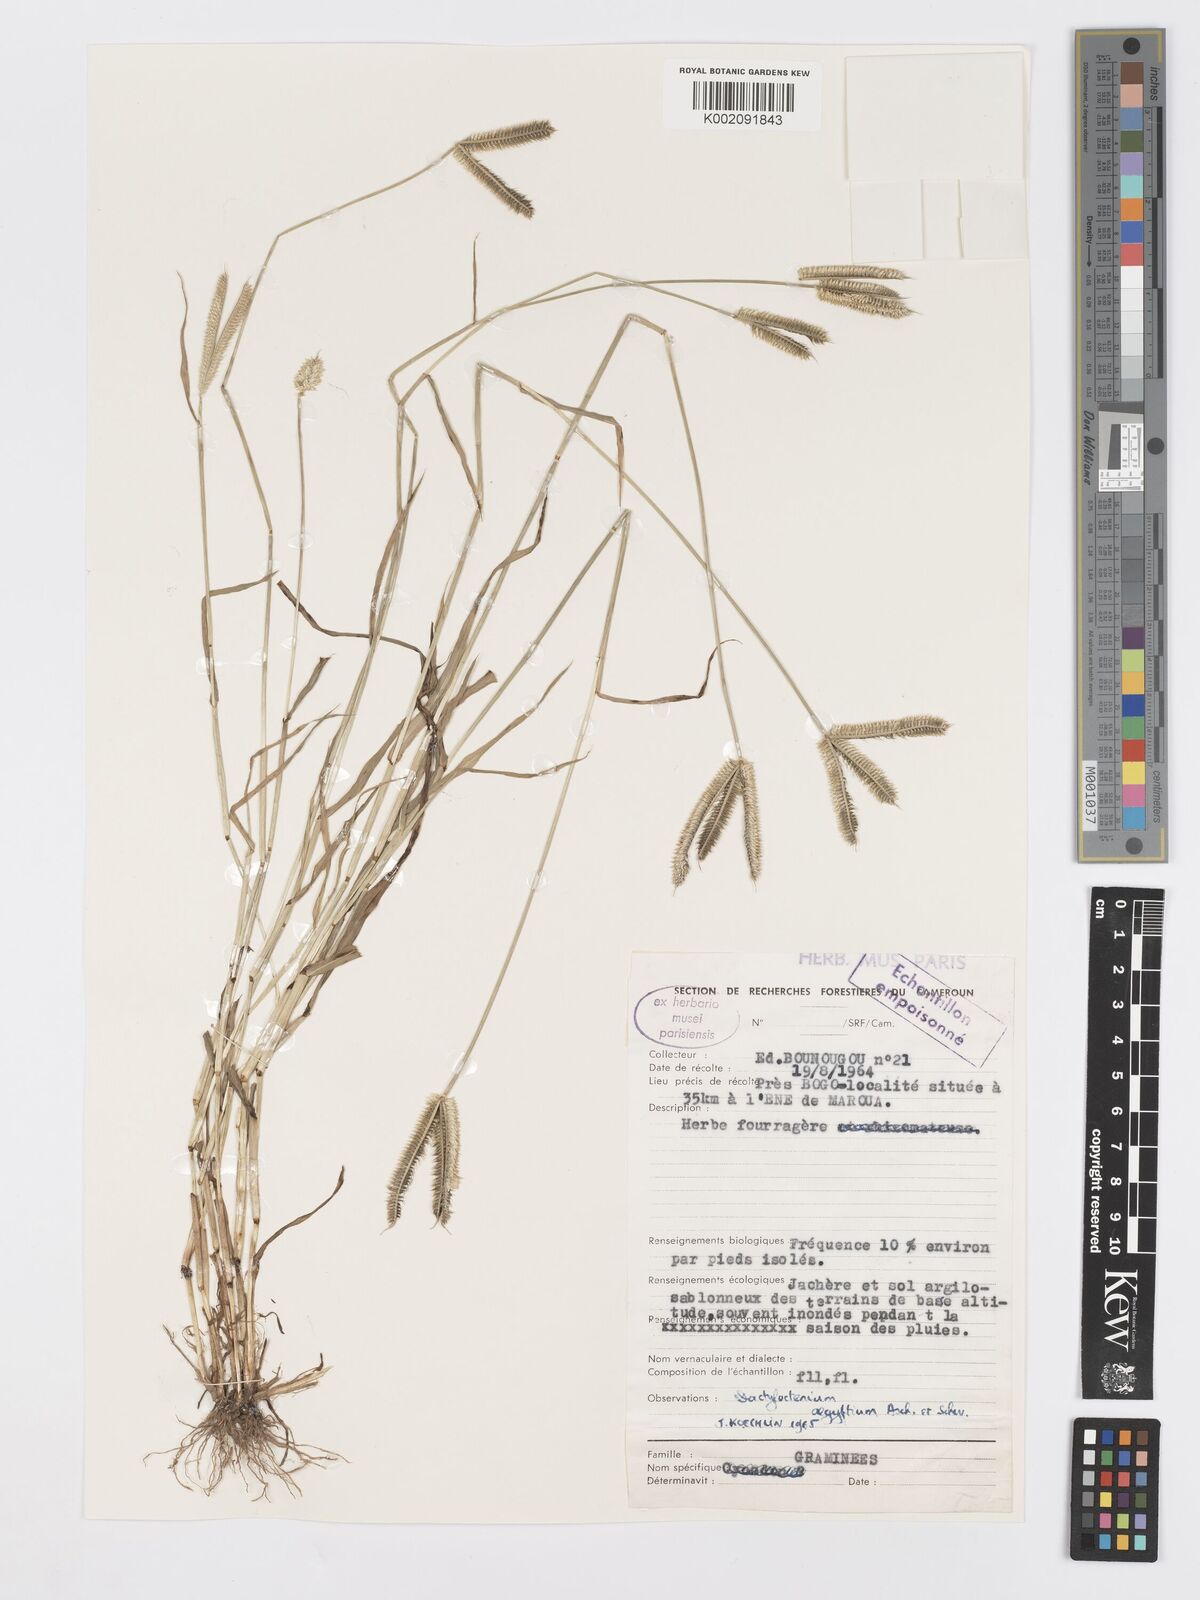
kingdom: Plantae
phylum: Tracheophyta
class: Liliopsida
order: Poales
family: Poaceae
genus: Dactyloctenium
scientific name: Dactyloctenium aegyptium
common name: Egyptian grass
